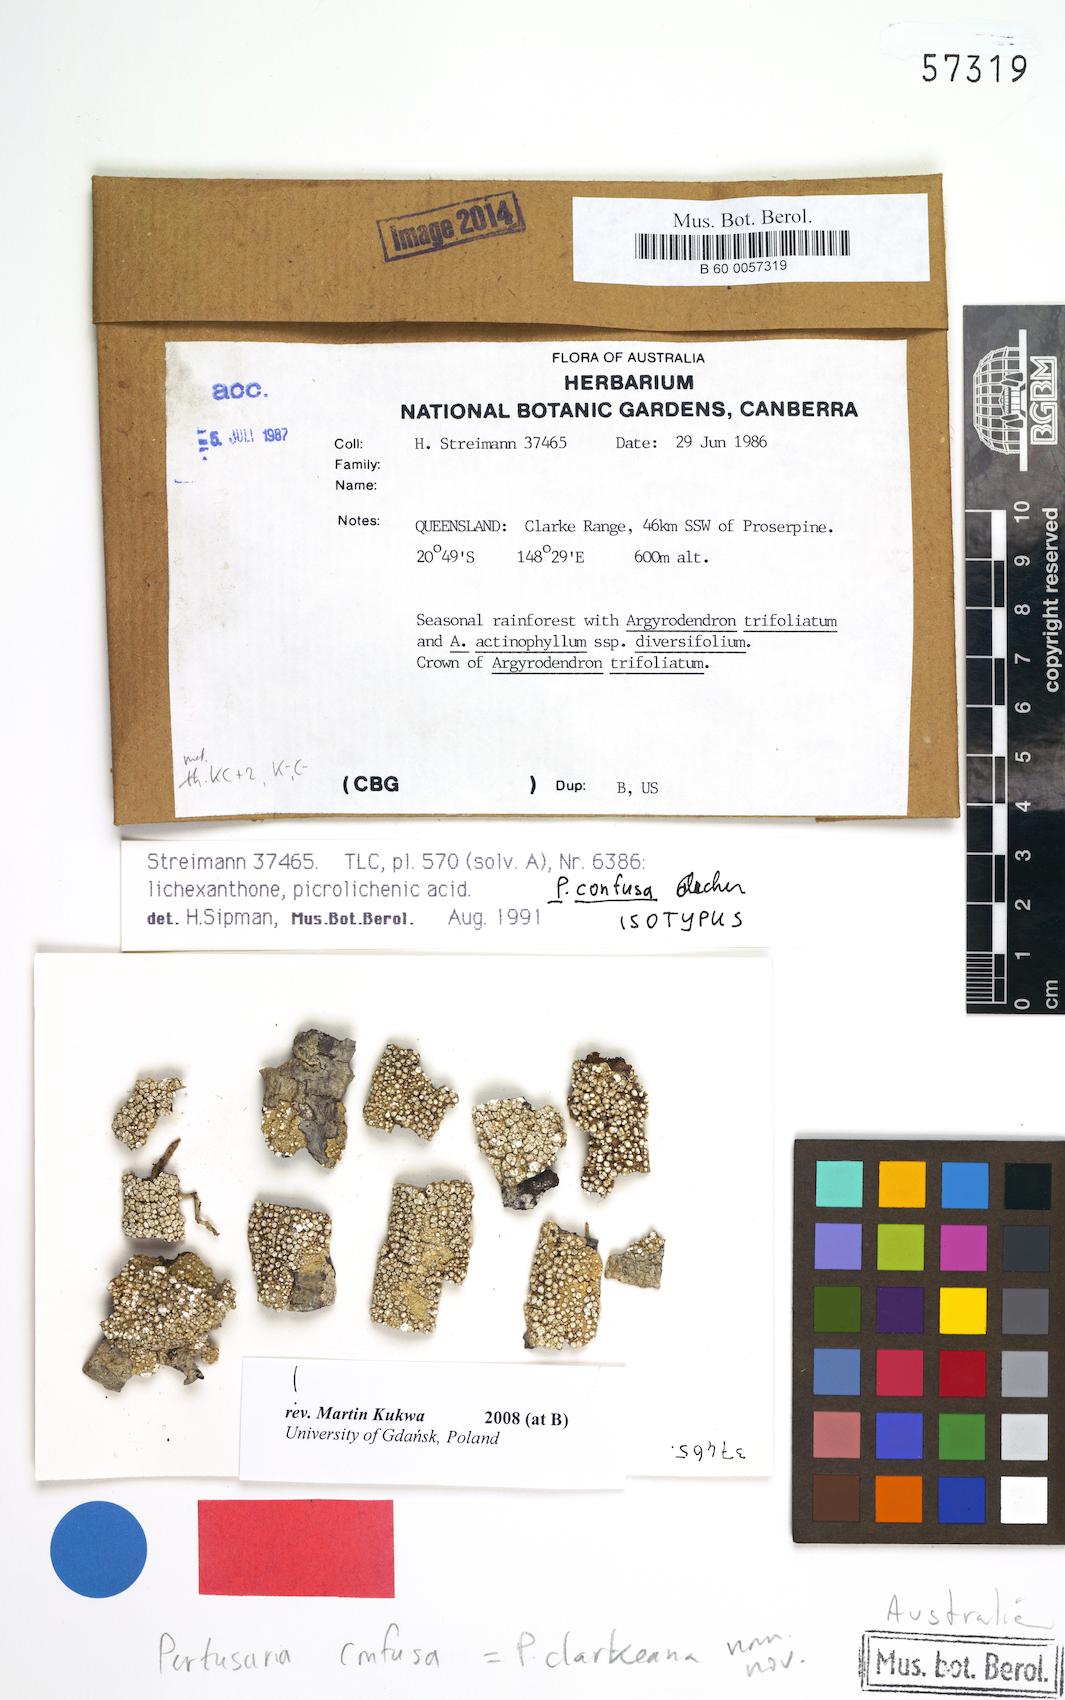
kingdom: Fungi
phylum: Ascomycota
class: Lecanoromycetes
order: Pertusariales
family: Pertusariaceae
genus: Lepra
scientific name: Lepra clarkeana
